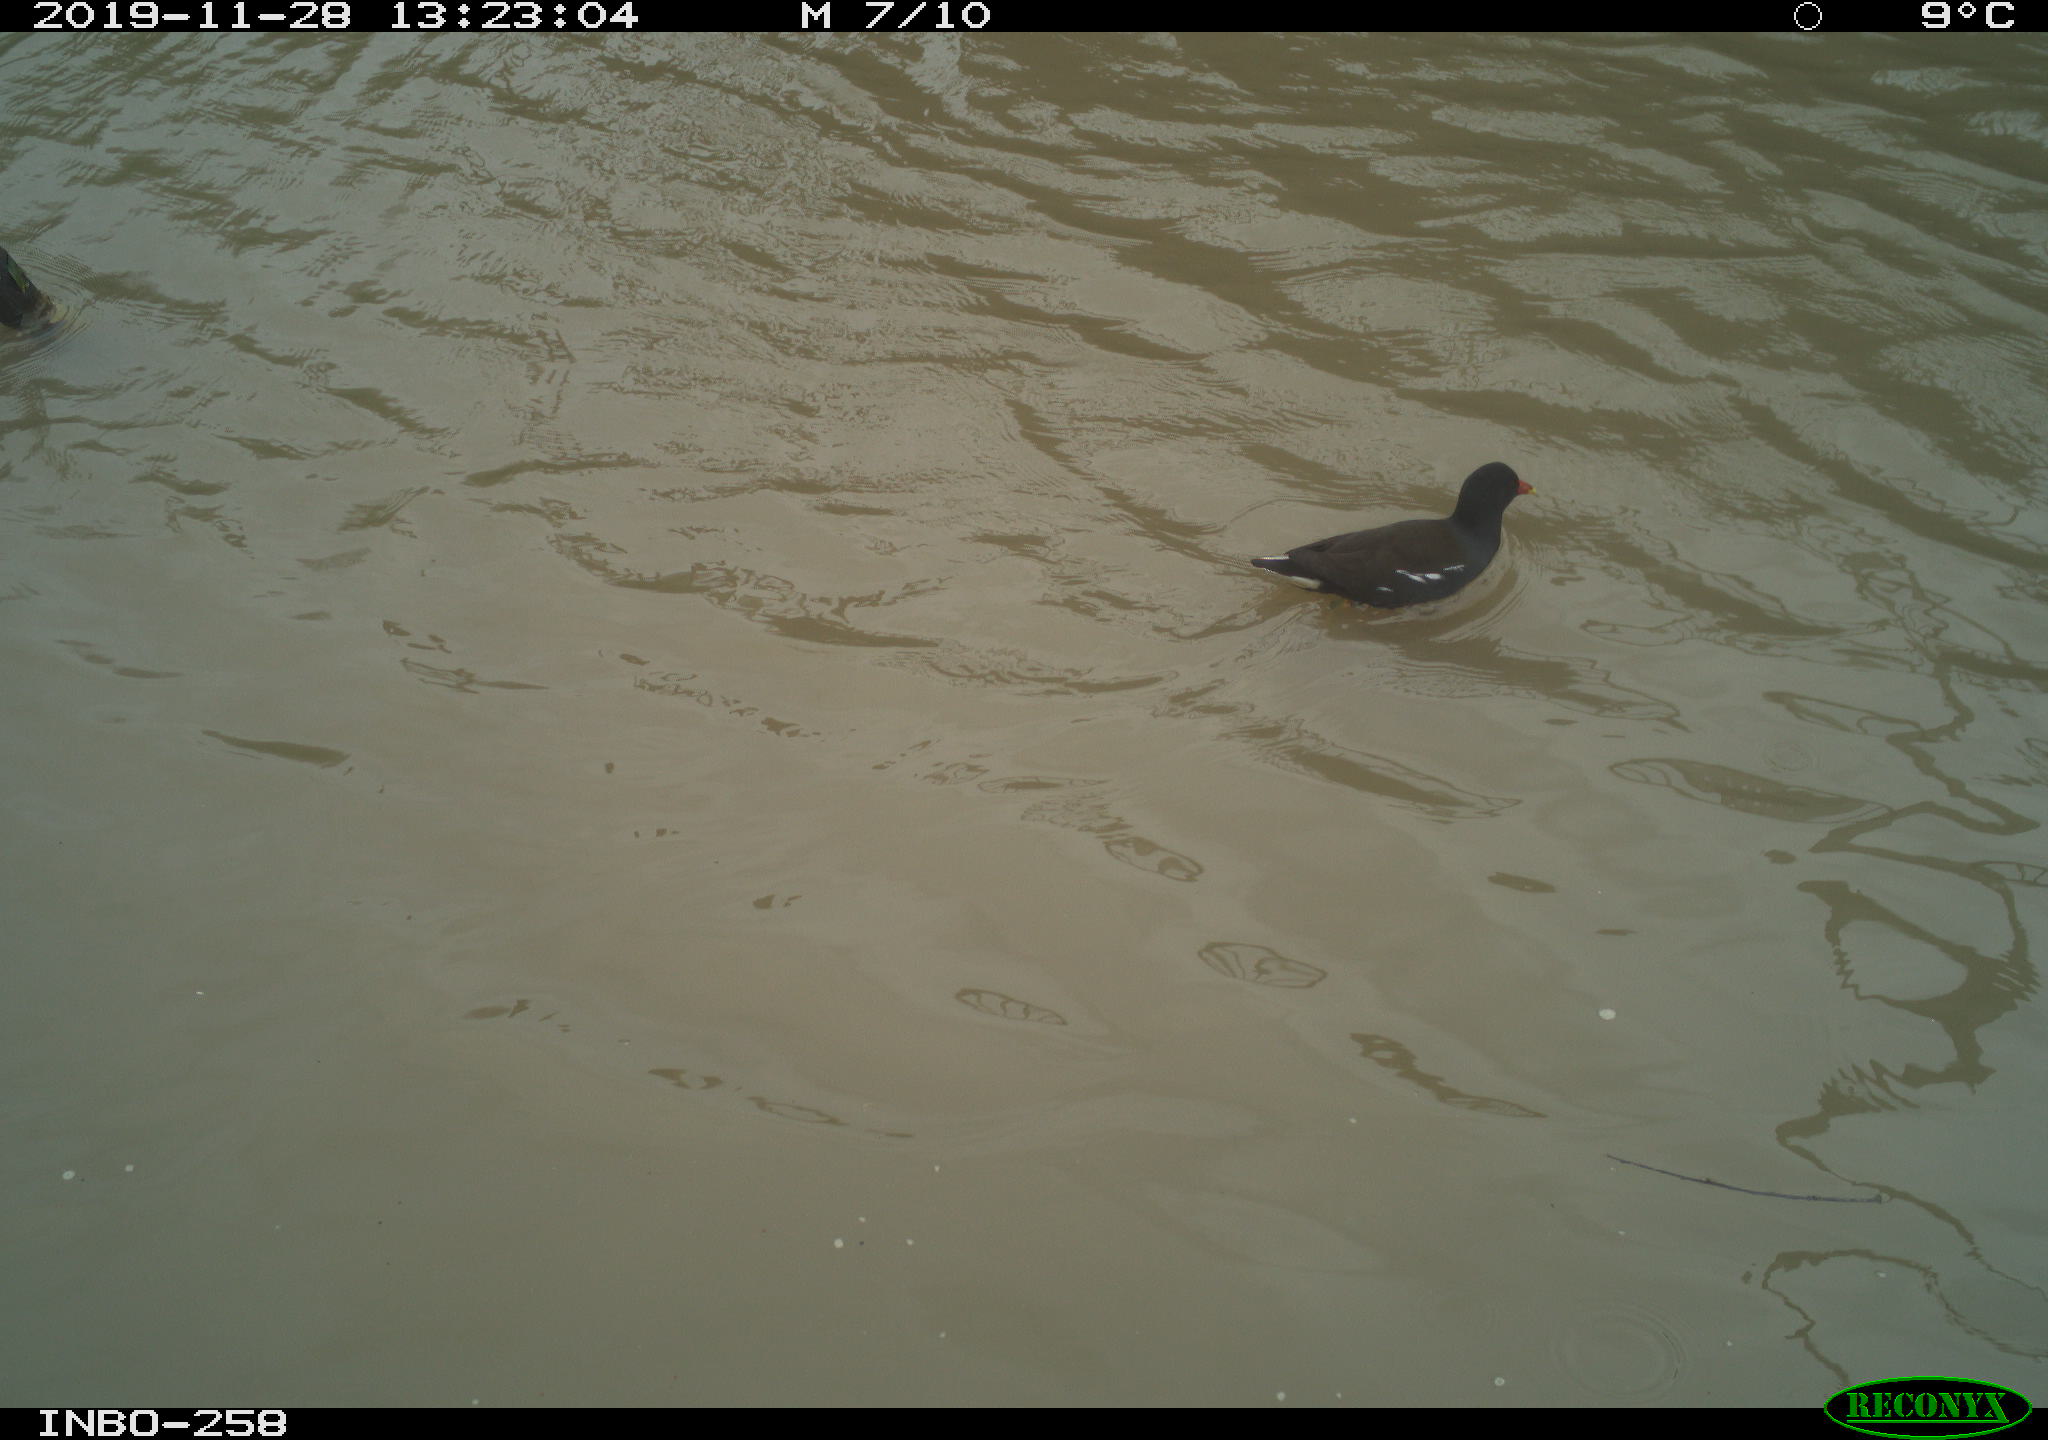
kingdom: Animalia
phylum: Chordata
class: Aves
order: Gruiformes
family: Rallidae
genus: Gallinula
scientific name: Gallinula chloropus
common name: Common moorhen
